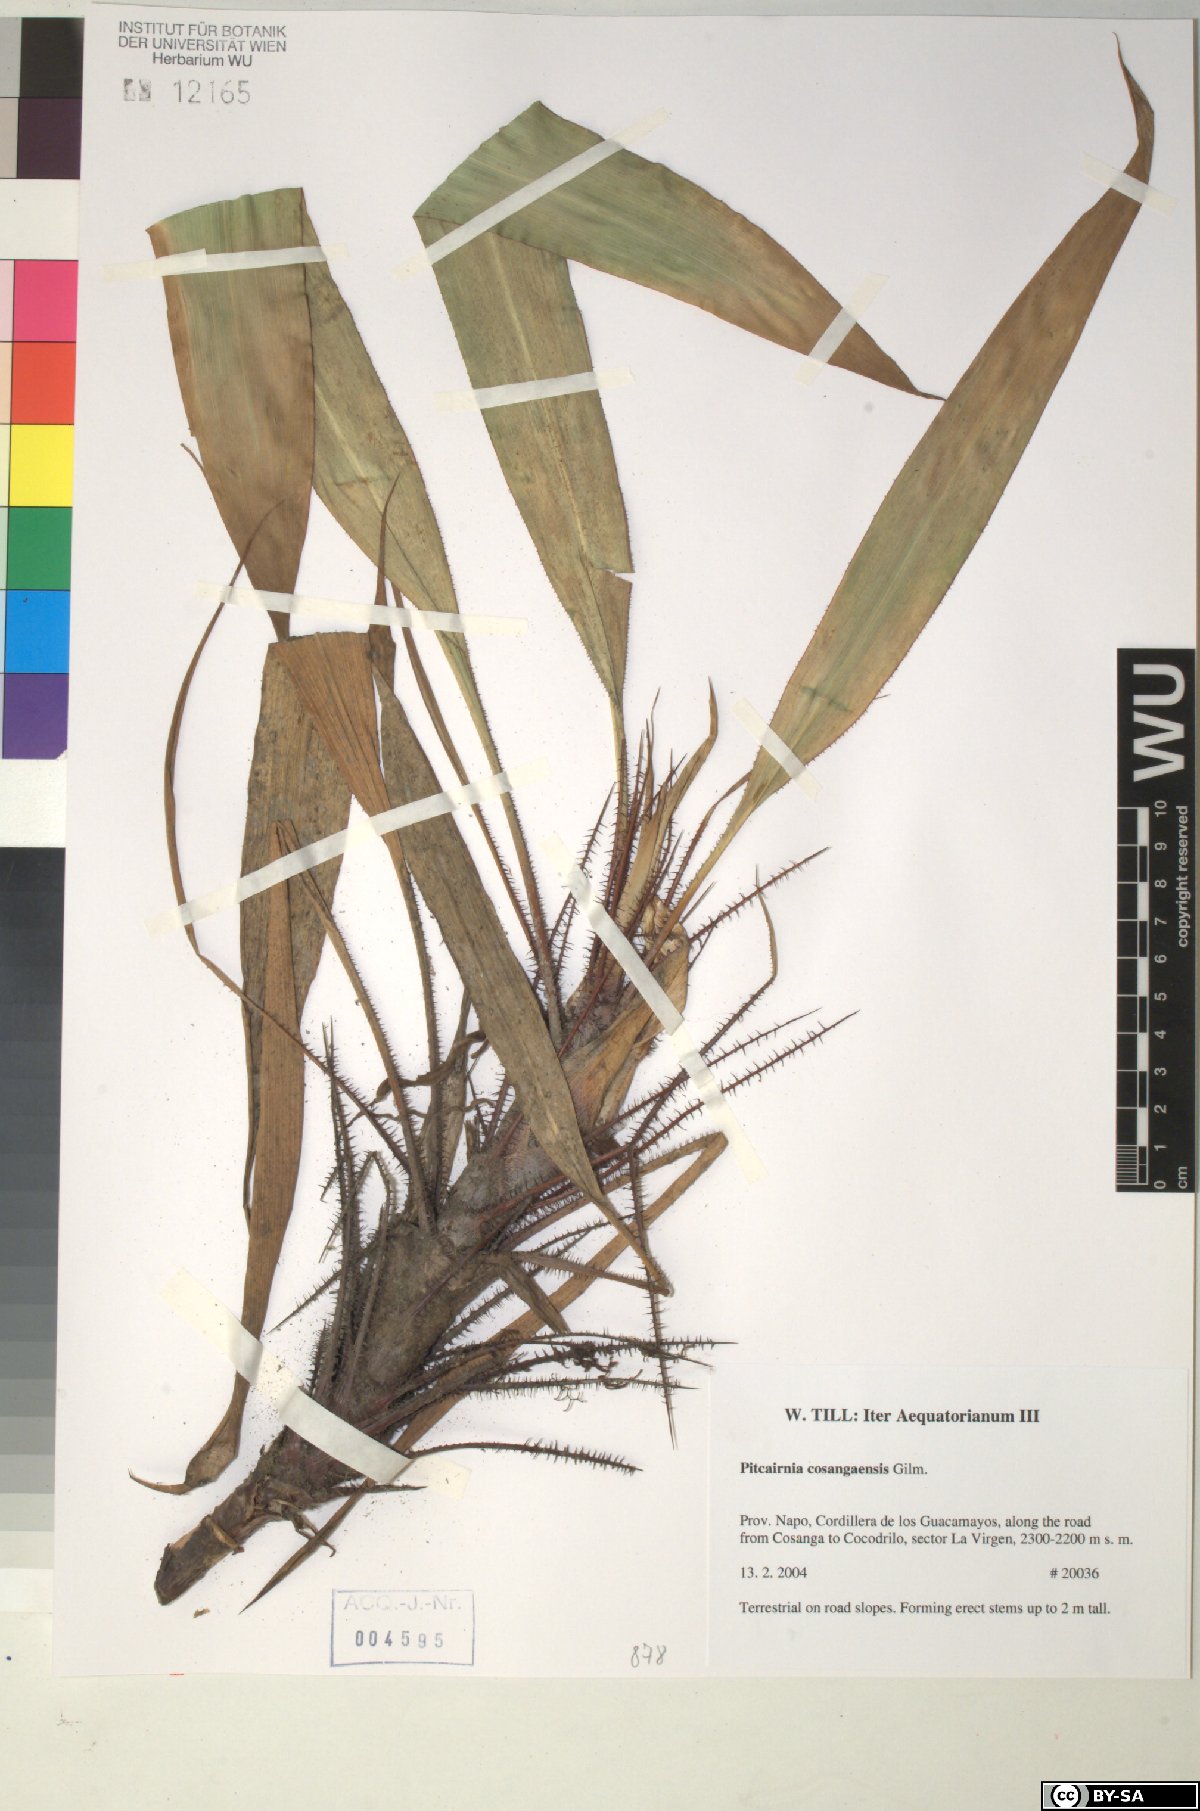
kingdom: Plantae
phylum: Tracheophyta
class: Liliopsida
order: Poales
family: Bromeliaceae
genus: Pitcairnia
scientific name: Pitcairnia cosangaensis
